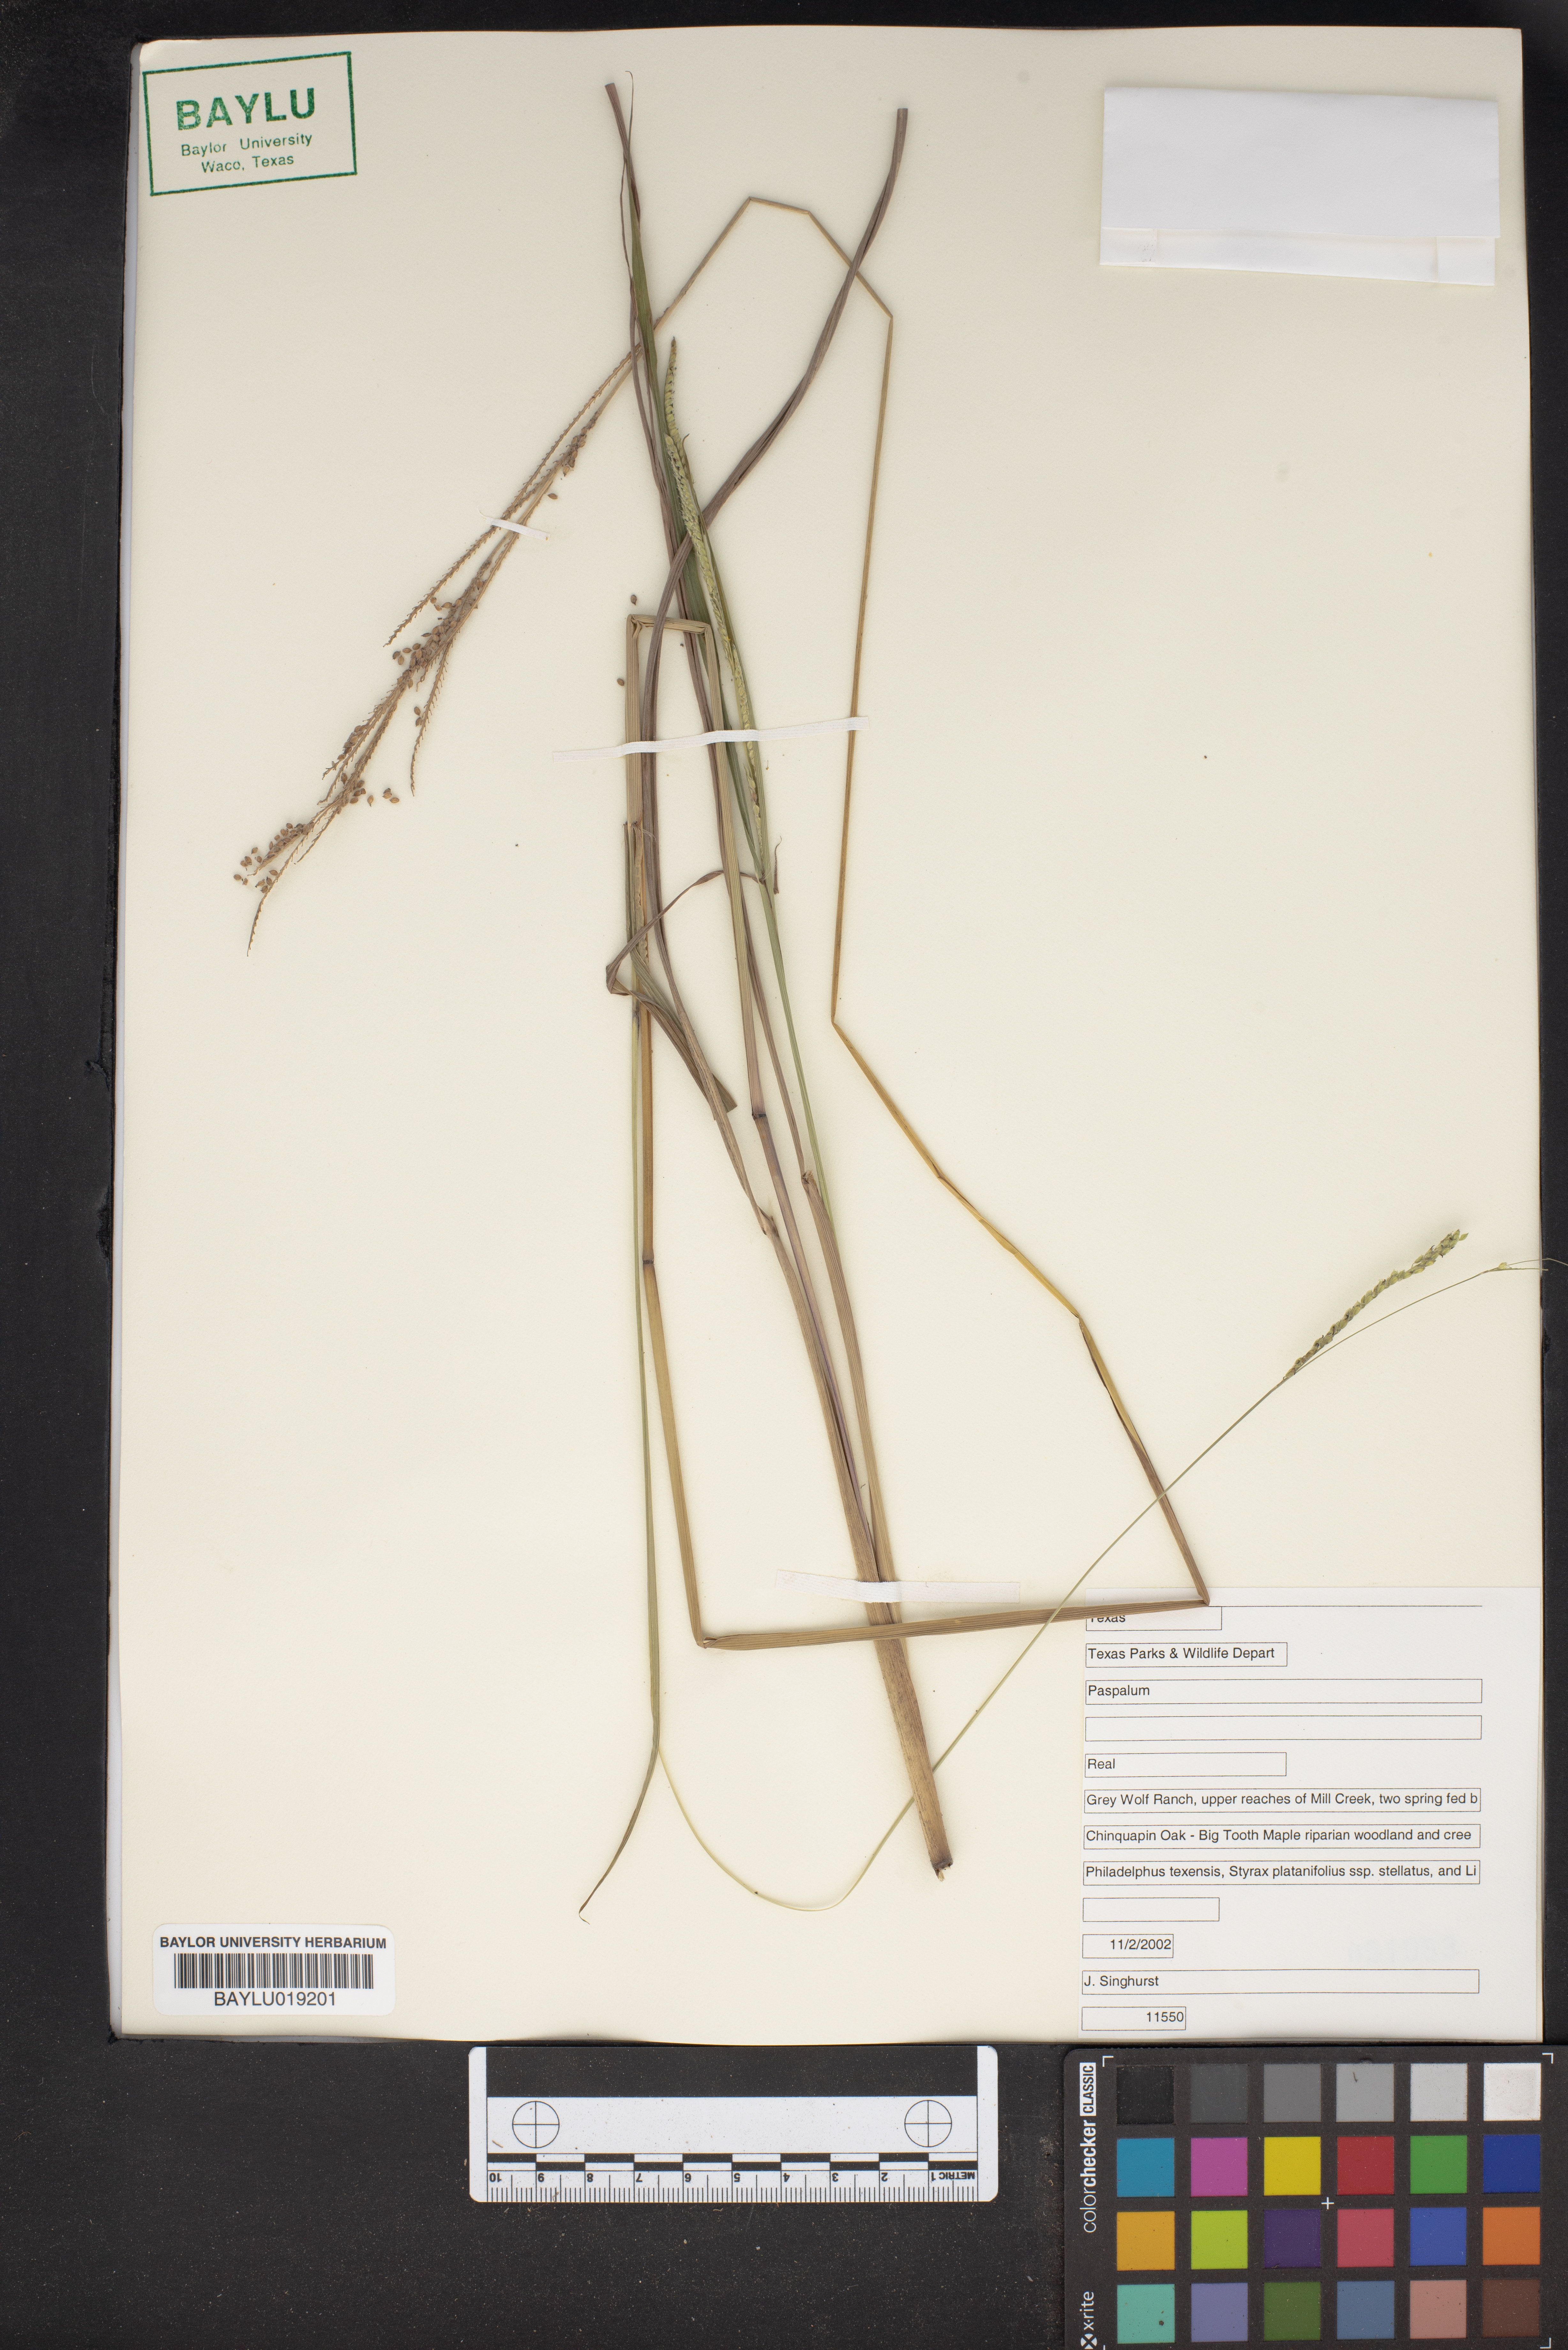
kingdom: Plantae
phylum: Tracheophyta
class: Liliopsida
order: Poales
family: Poaceae
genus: Paspalum
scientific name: Paspalum
